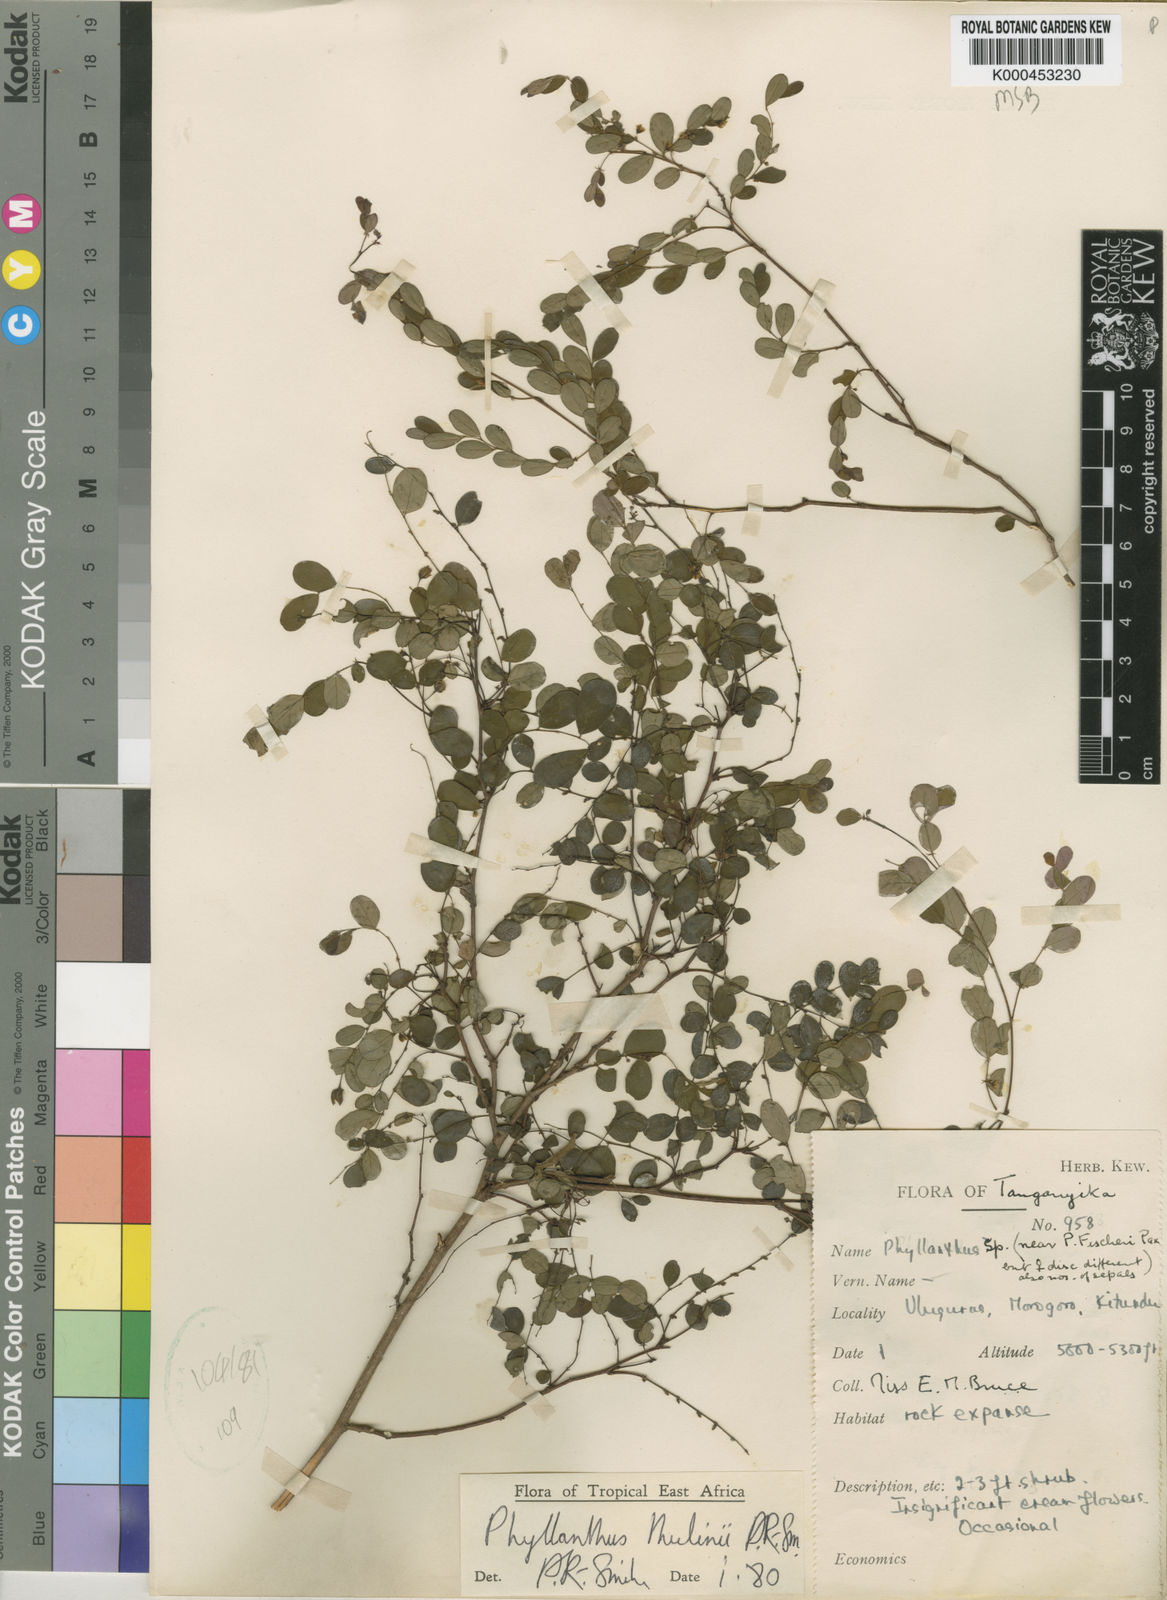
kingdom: Plantae
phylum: Tracheophyta
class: Magnoliopsida
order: Malpighiales
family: Phyllanthaceae
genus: Phyllanthus
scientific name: Phyllanthus
